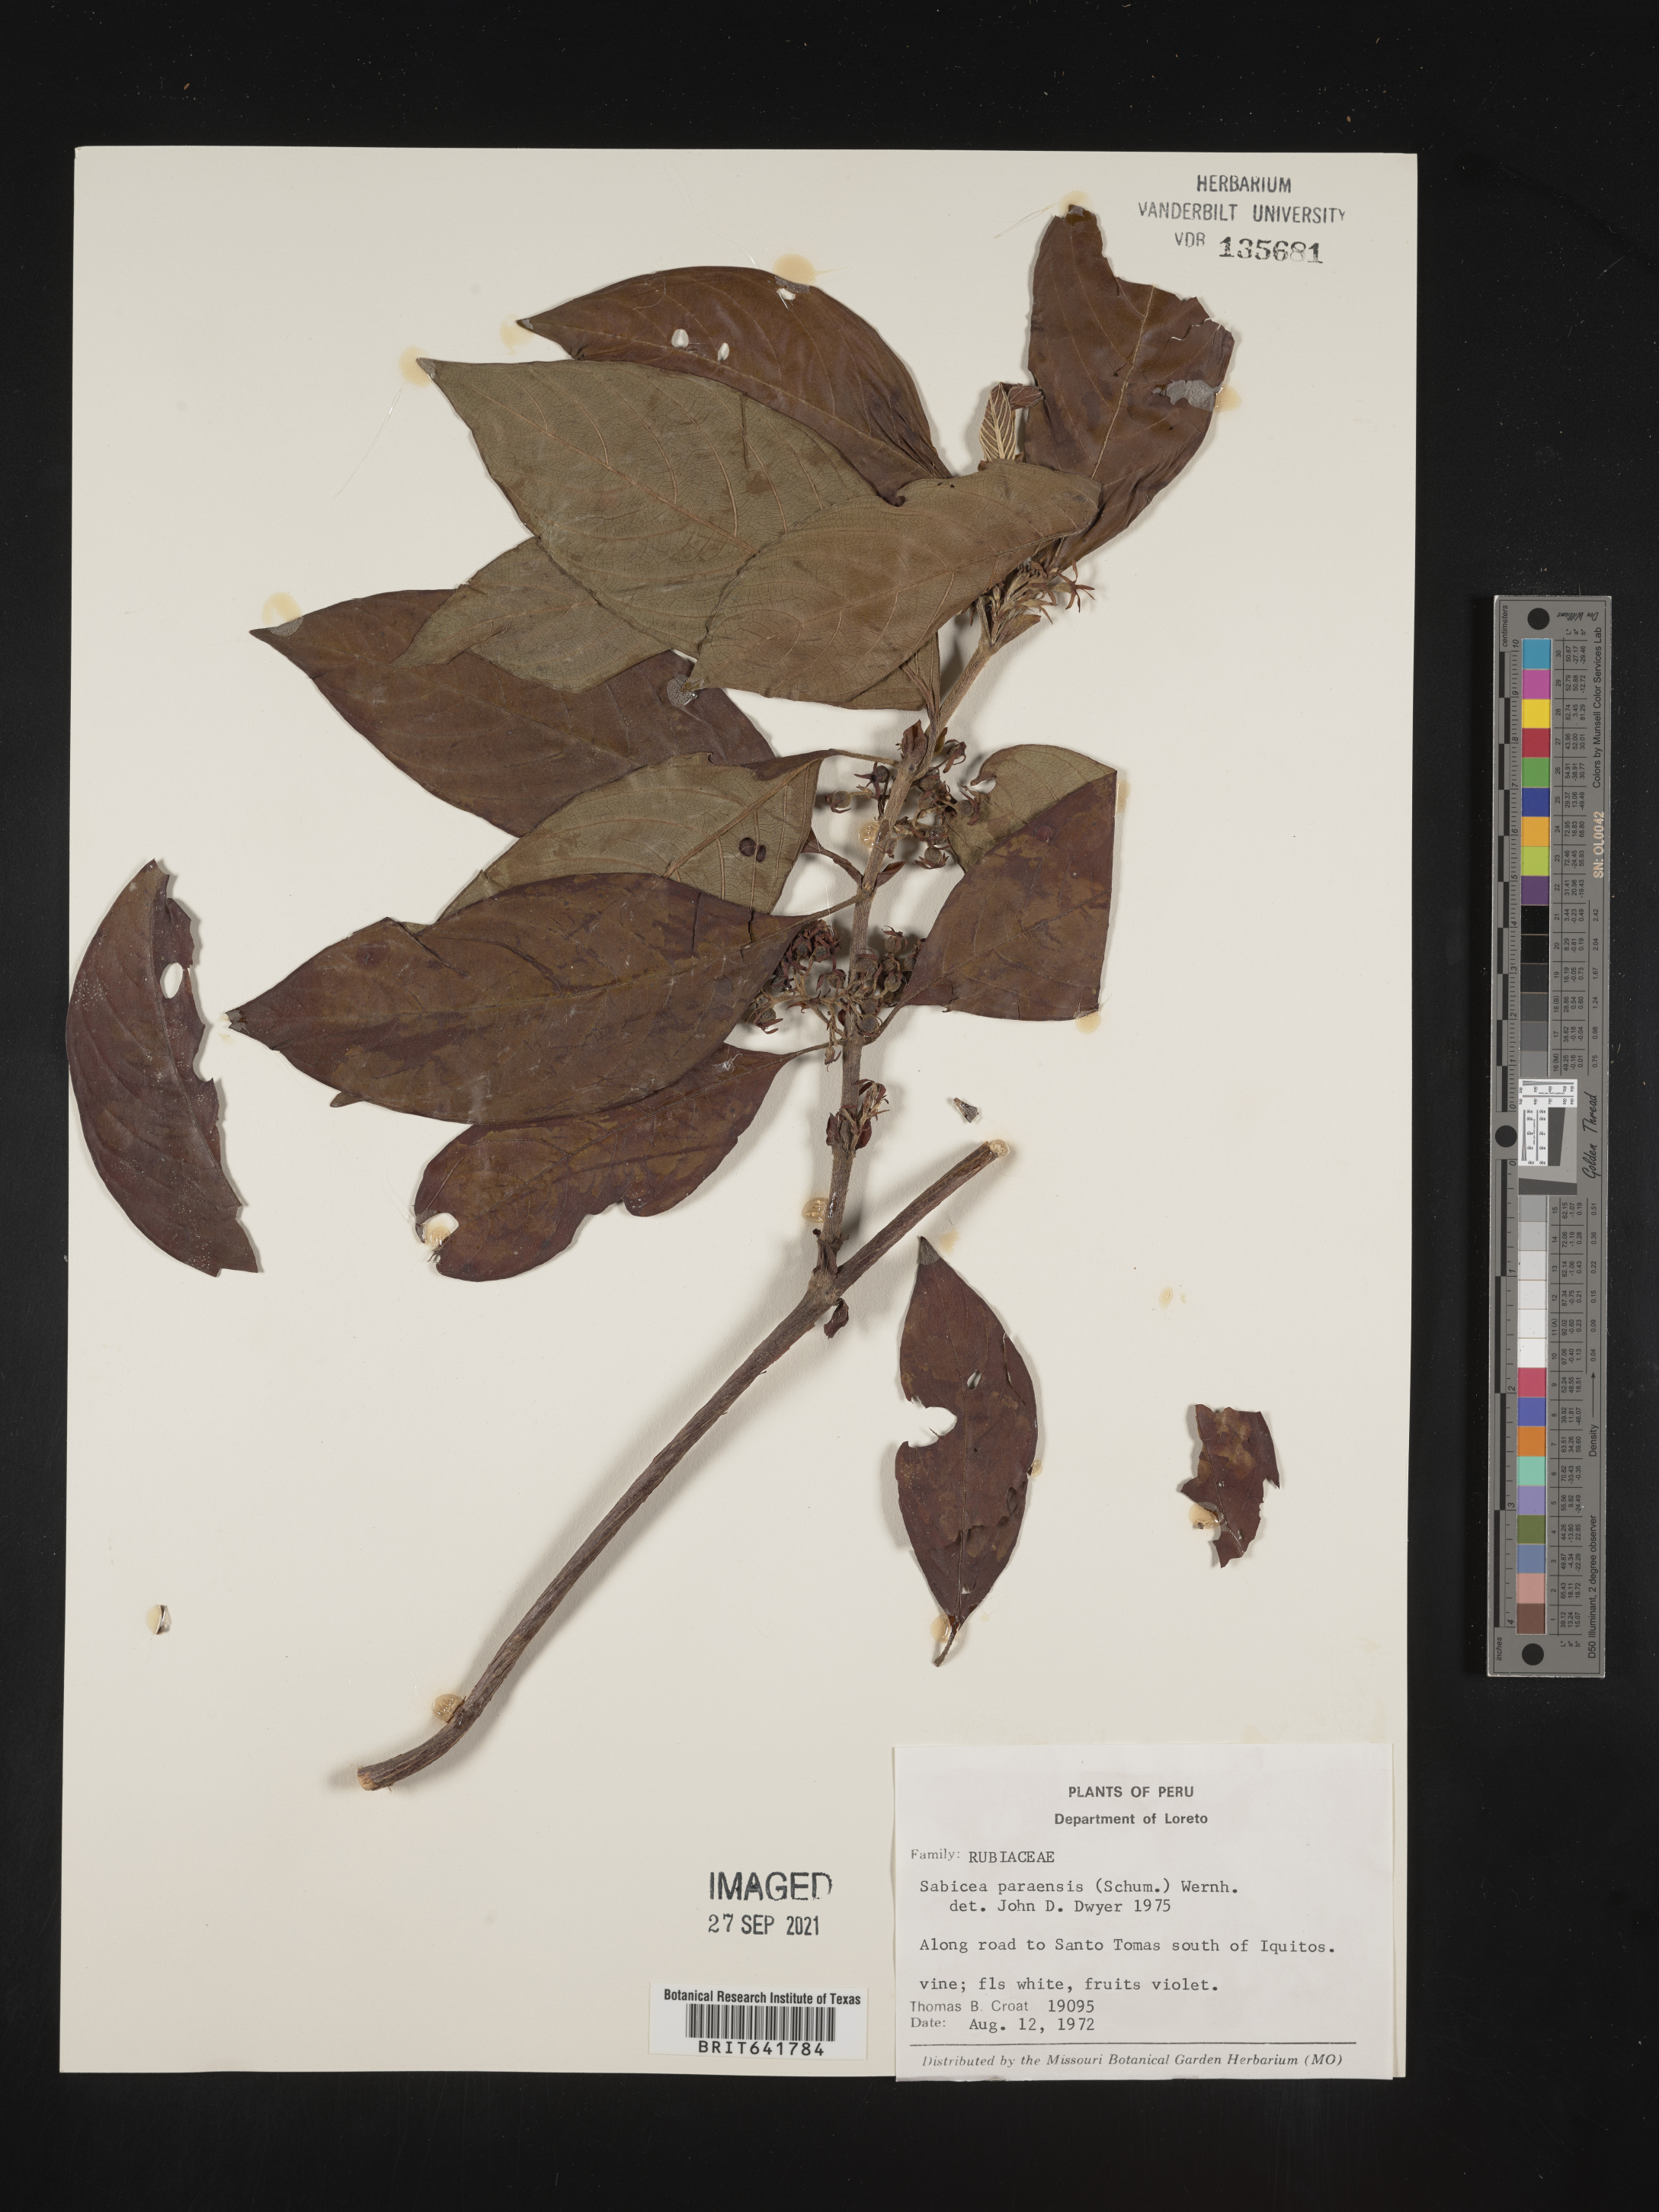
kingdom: Plantae
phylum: Tracheophyta
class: Magnoliopsida
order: Gentianales
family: Rubiaceae
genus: Sabicea
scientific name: Sabicea
